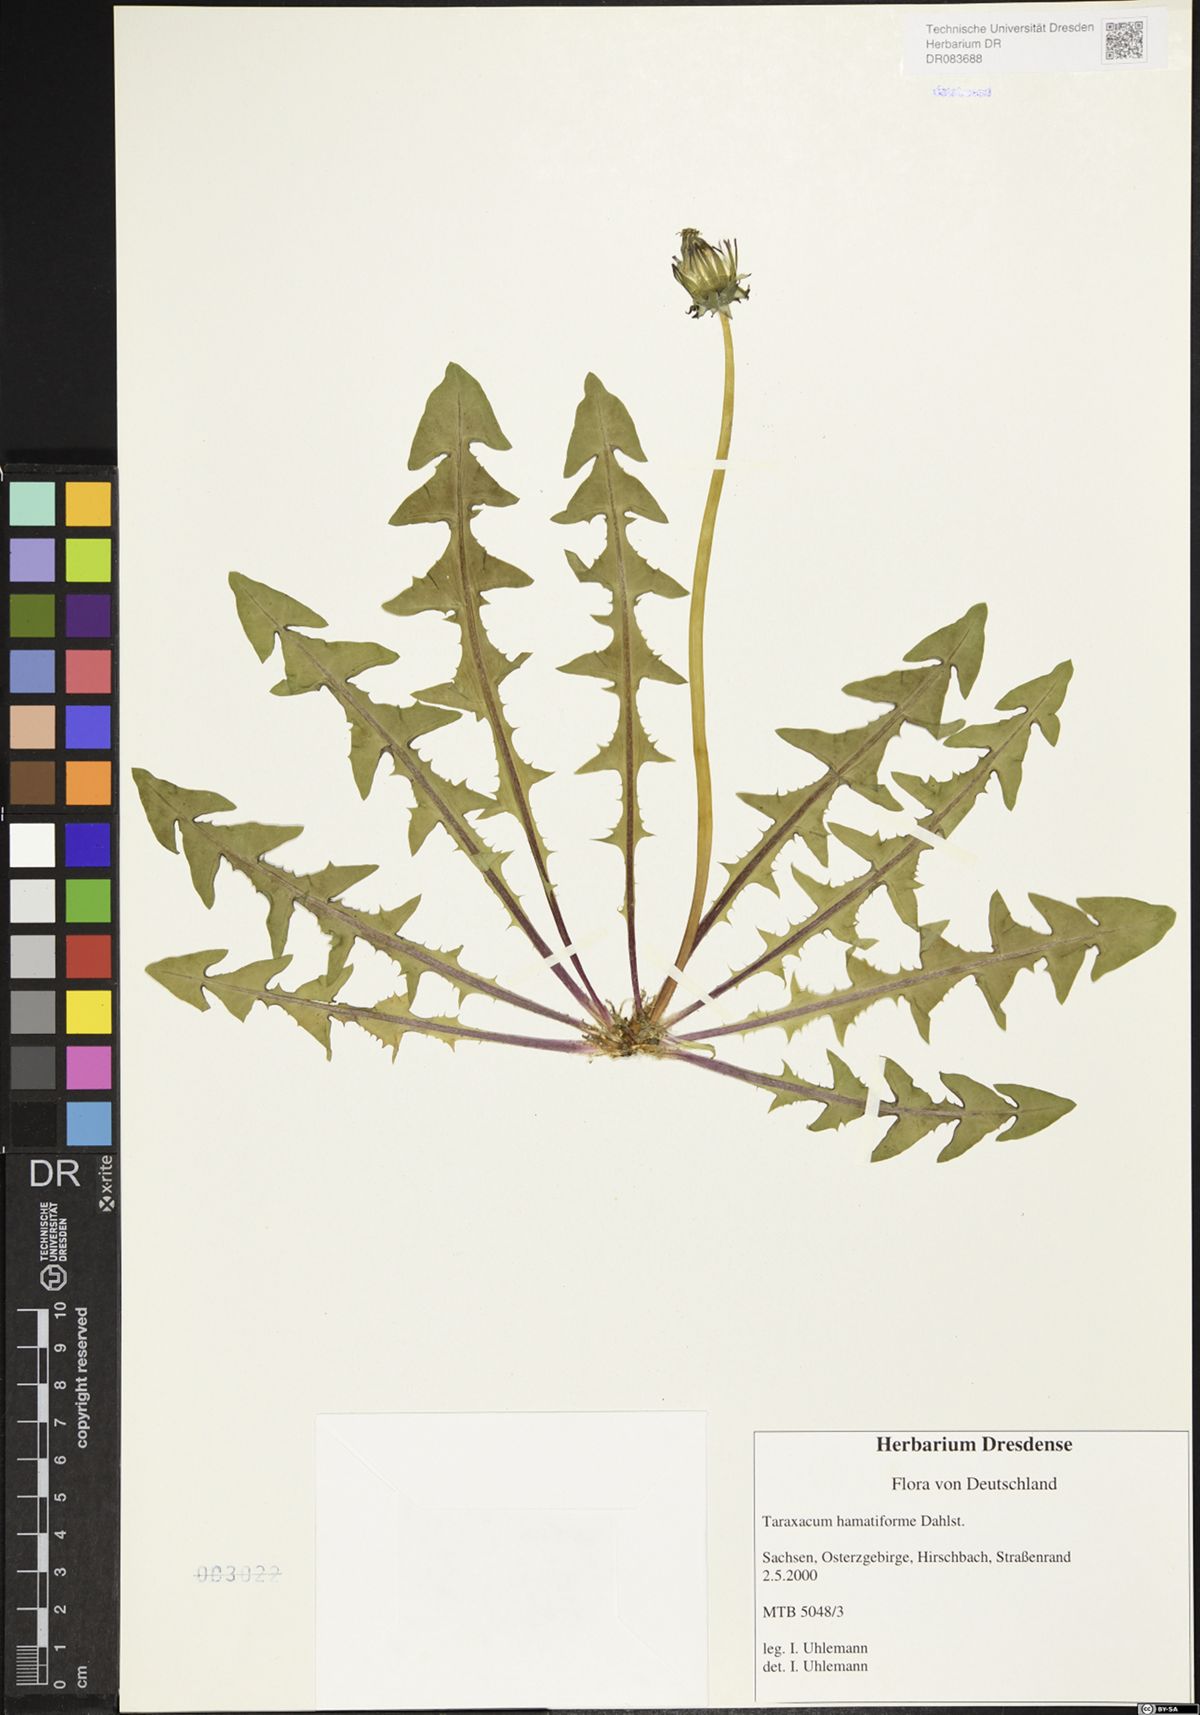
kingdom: Plantae
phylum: Tracheophyta
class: Magnoliopsida
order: Asterales
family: Asteraceae
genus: Taraxacum
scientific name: Taraxacum hamatiforme
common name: Asymmetrical hook-lobed dandelion
